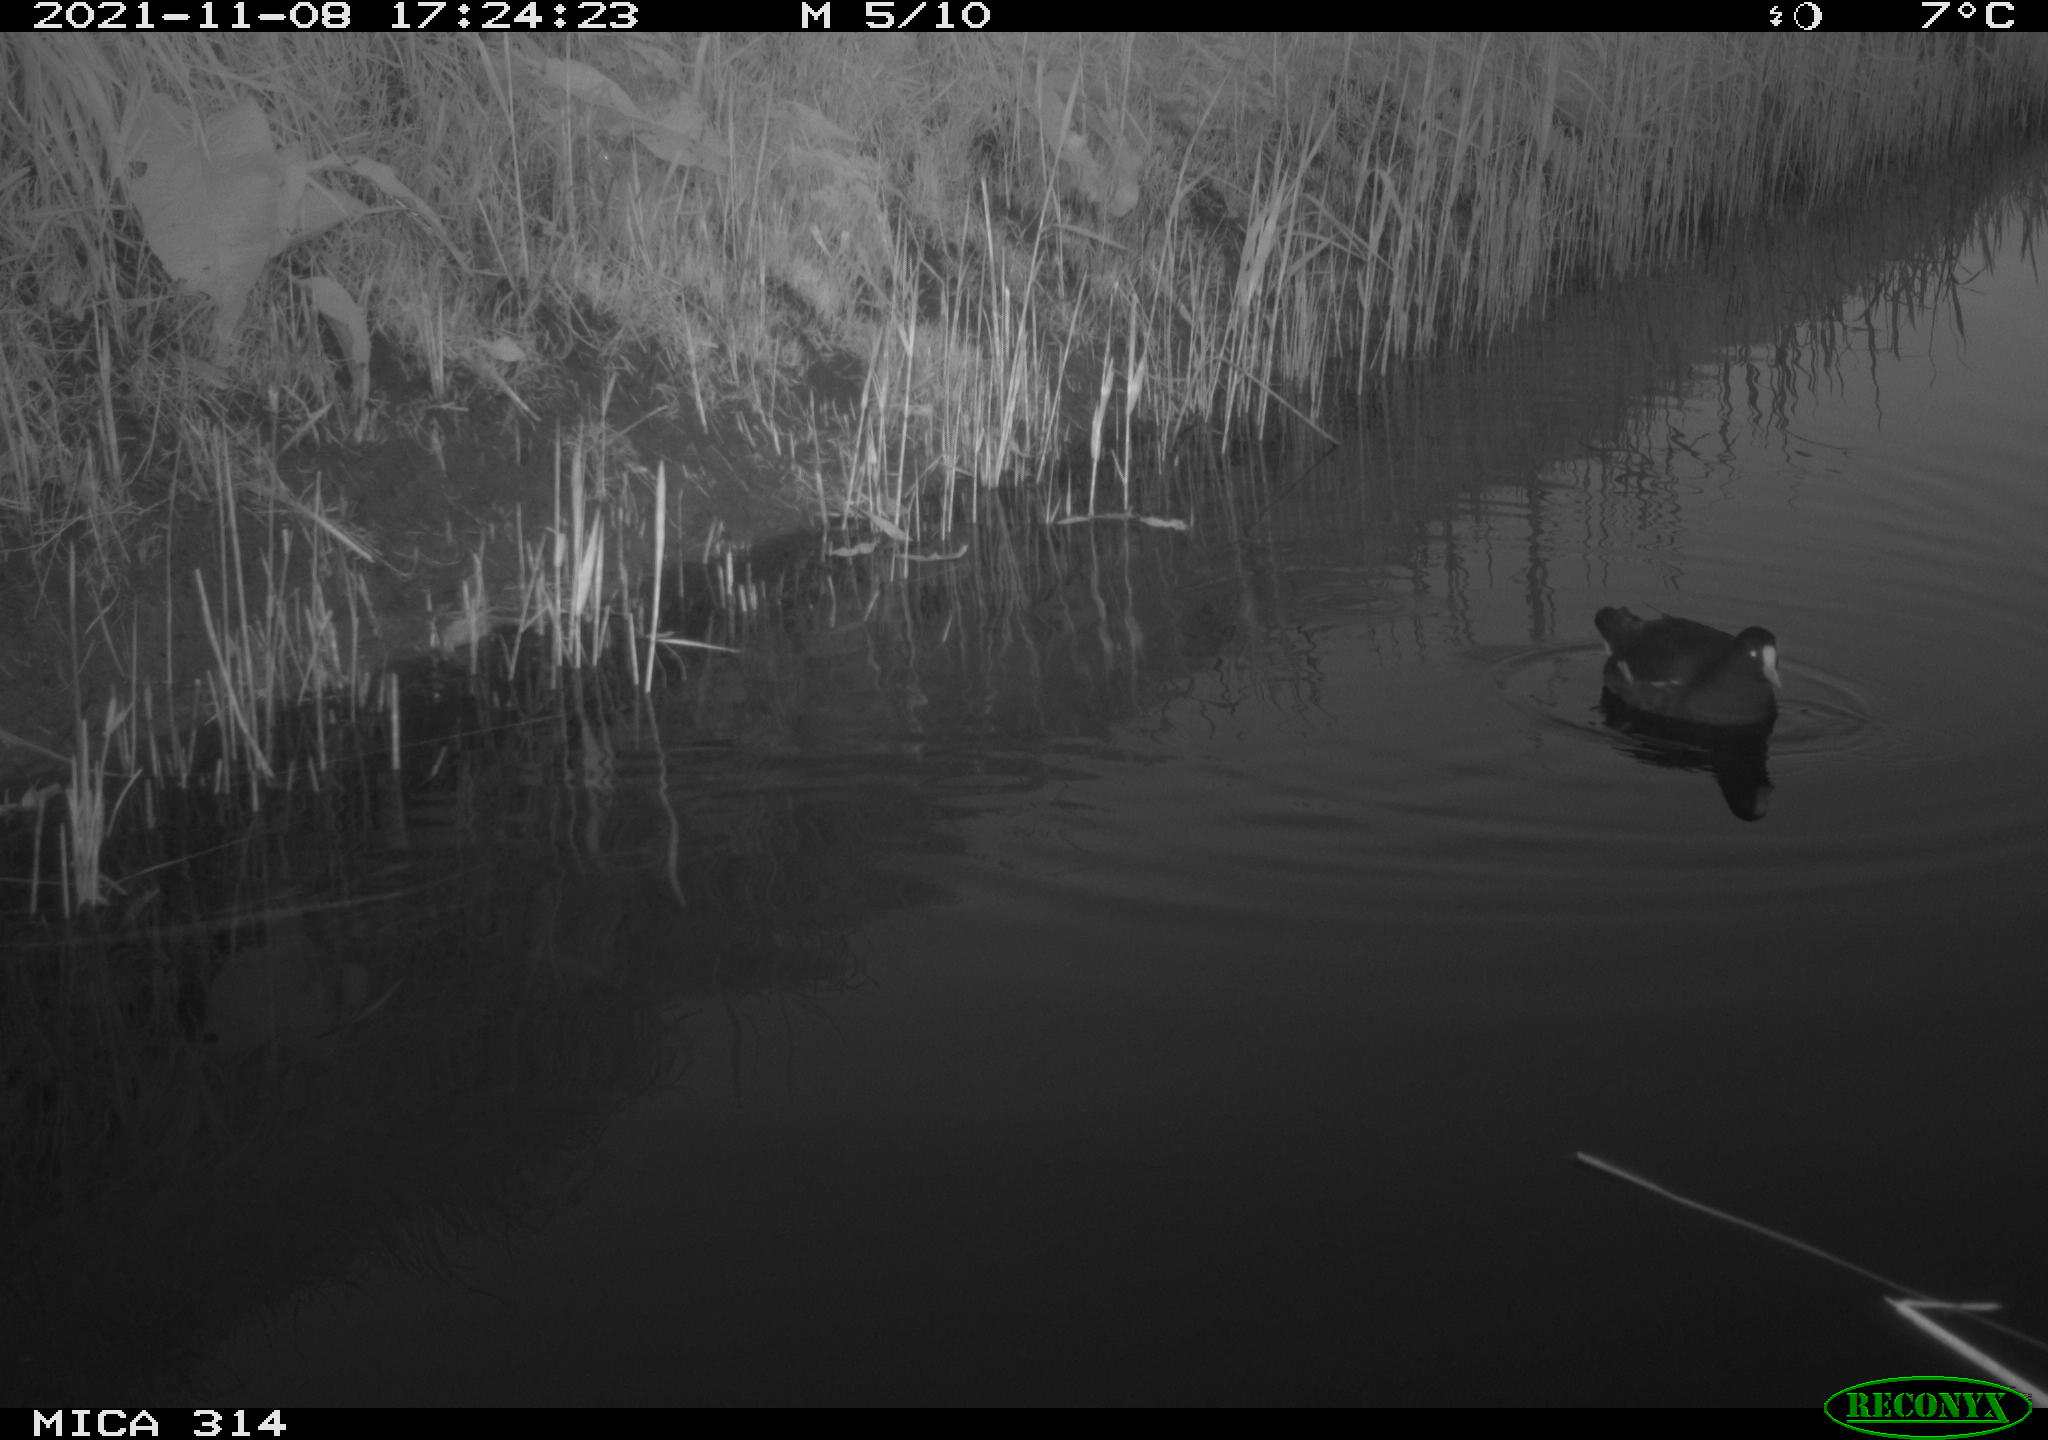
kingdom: Animalia
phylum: Chordata
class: Aves
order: Gruiformes
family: Rallidae
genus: Gallinula
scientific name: Gallinula chloropus
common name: Common moorhen
